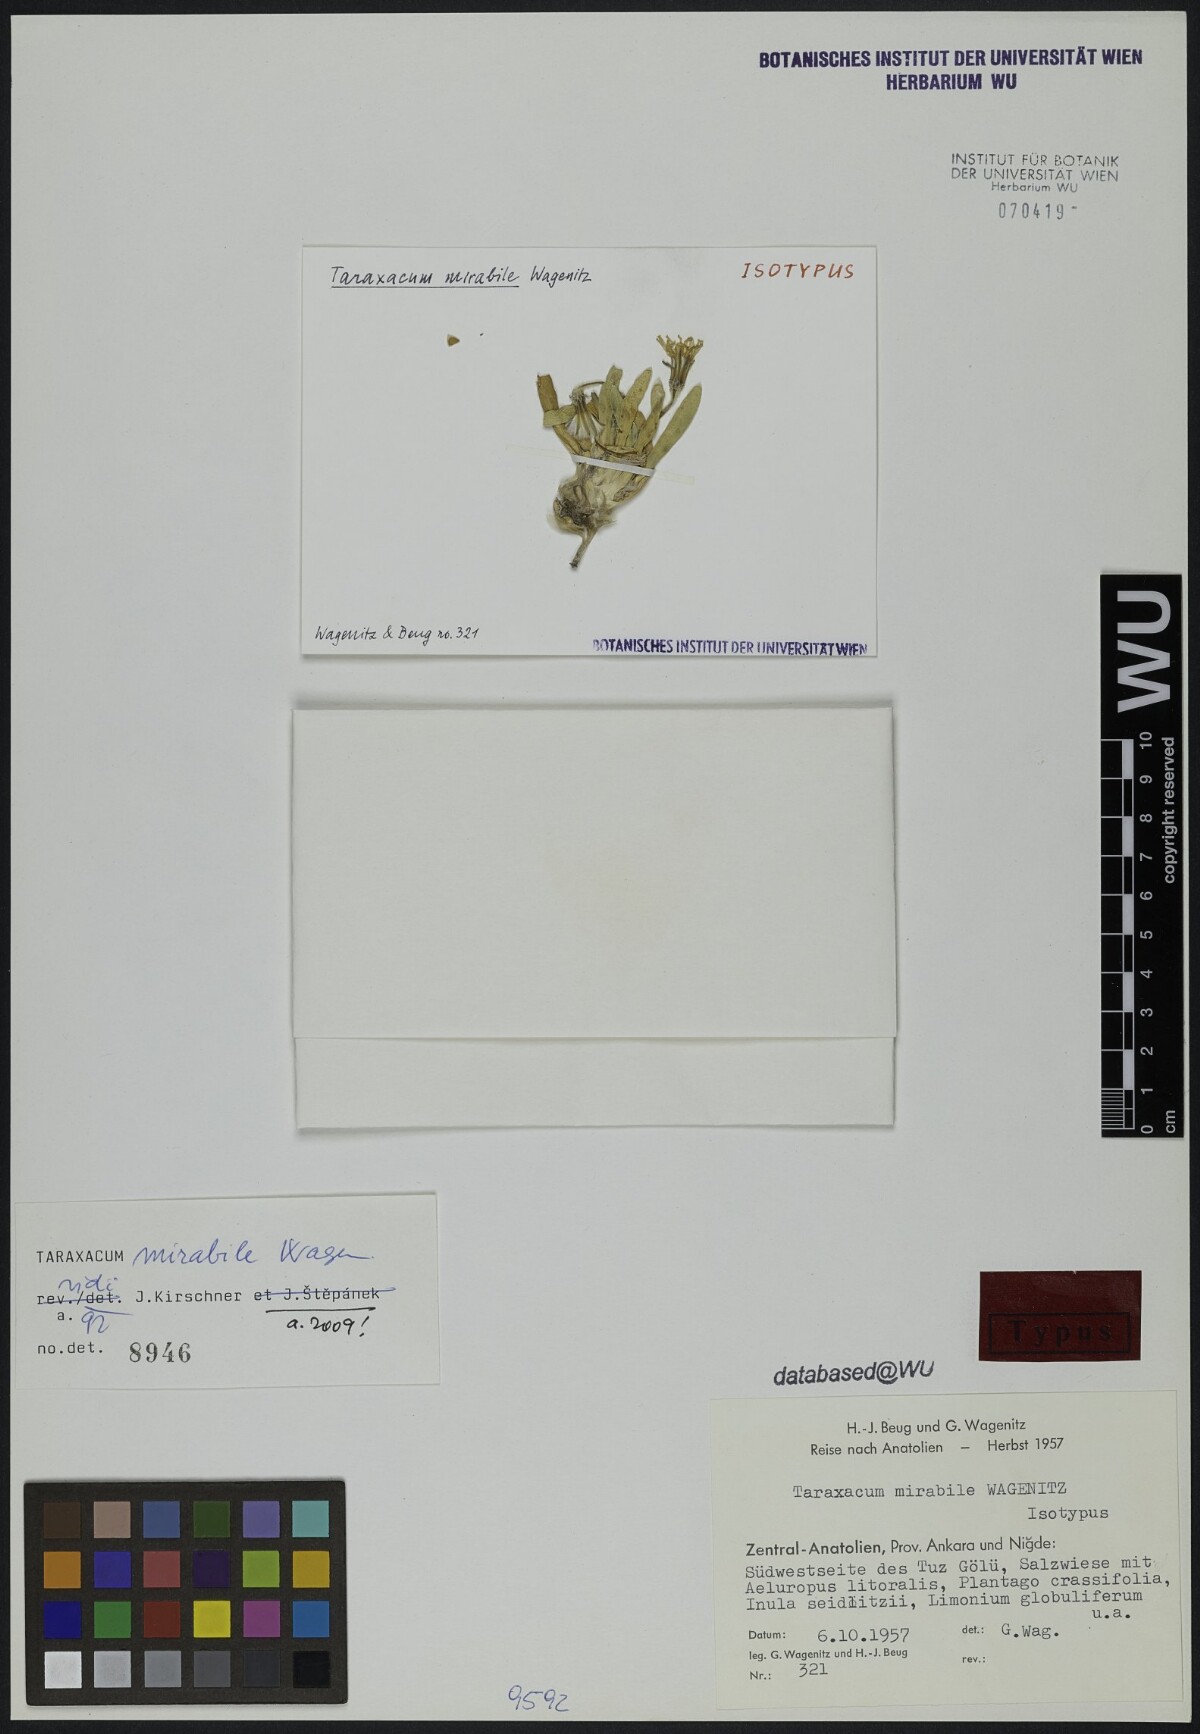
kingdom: Plantae
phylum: Tracheophyta
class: Magnoliopsida
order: Asterales
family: Asteraceae
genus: Taraxacum
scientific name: Taraxacum mirabile
